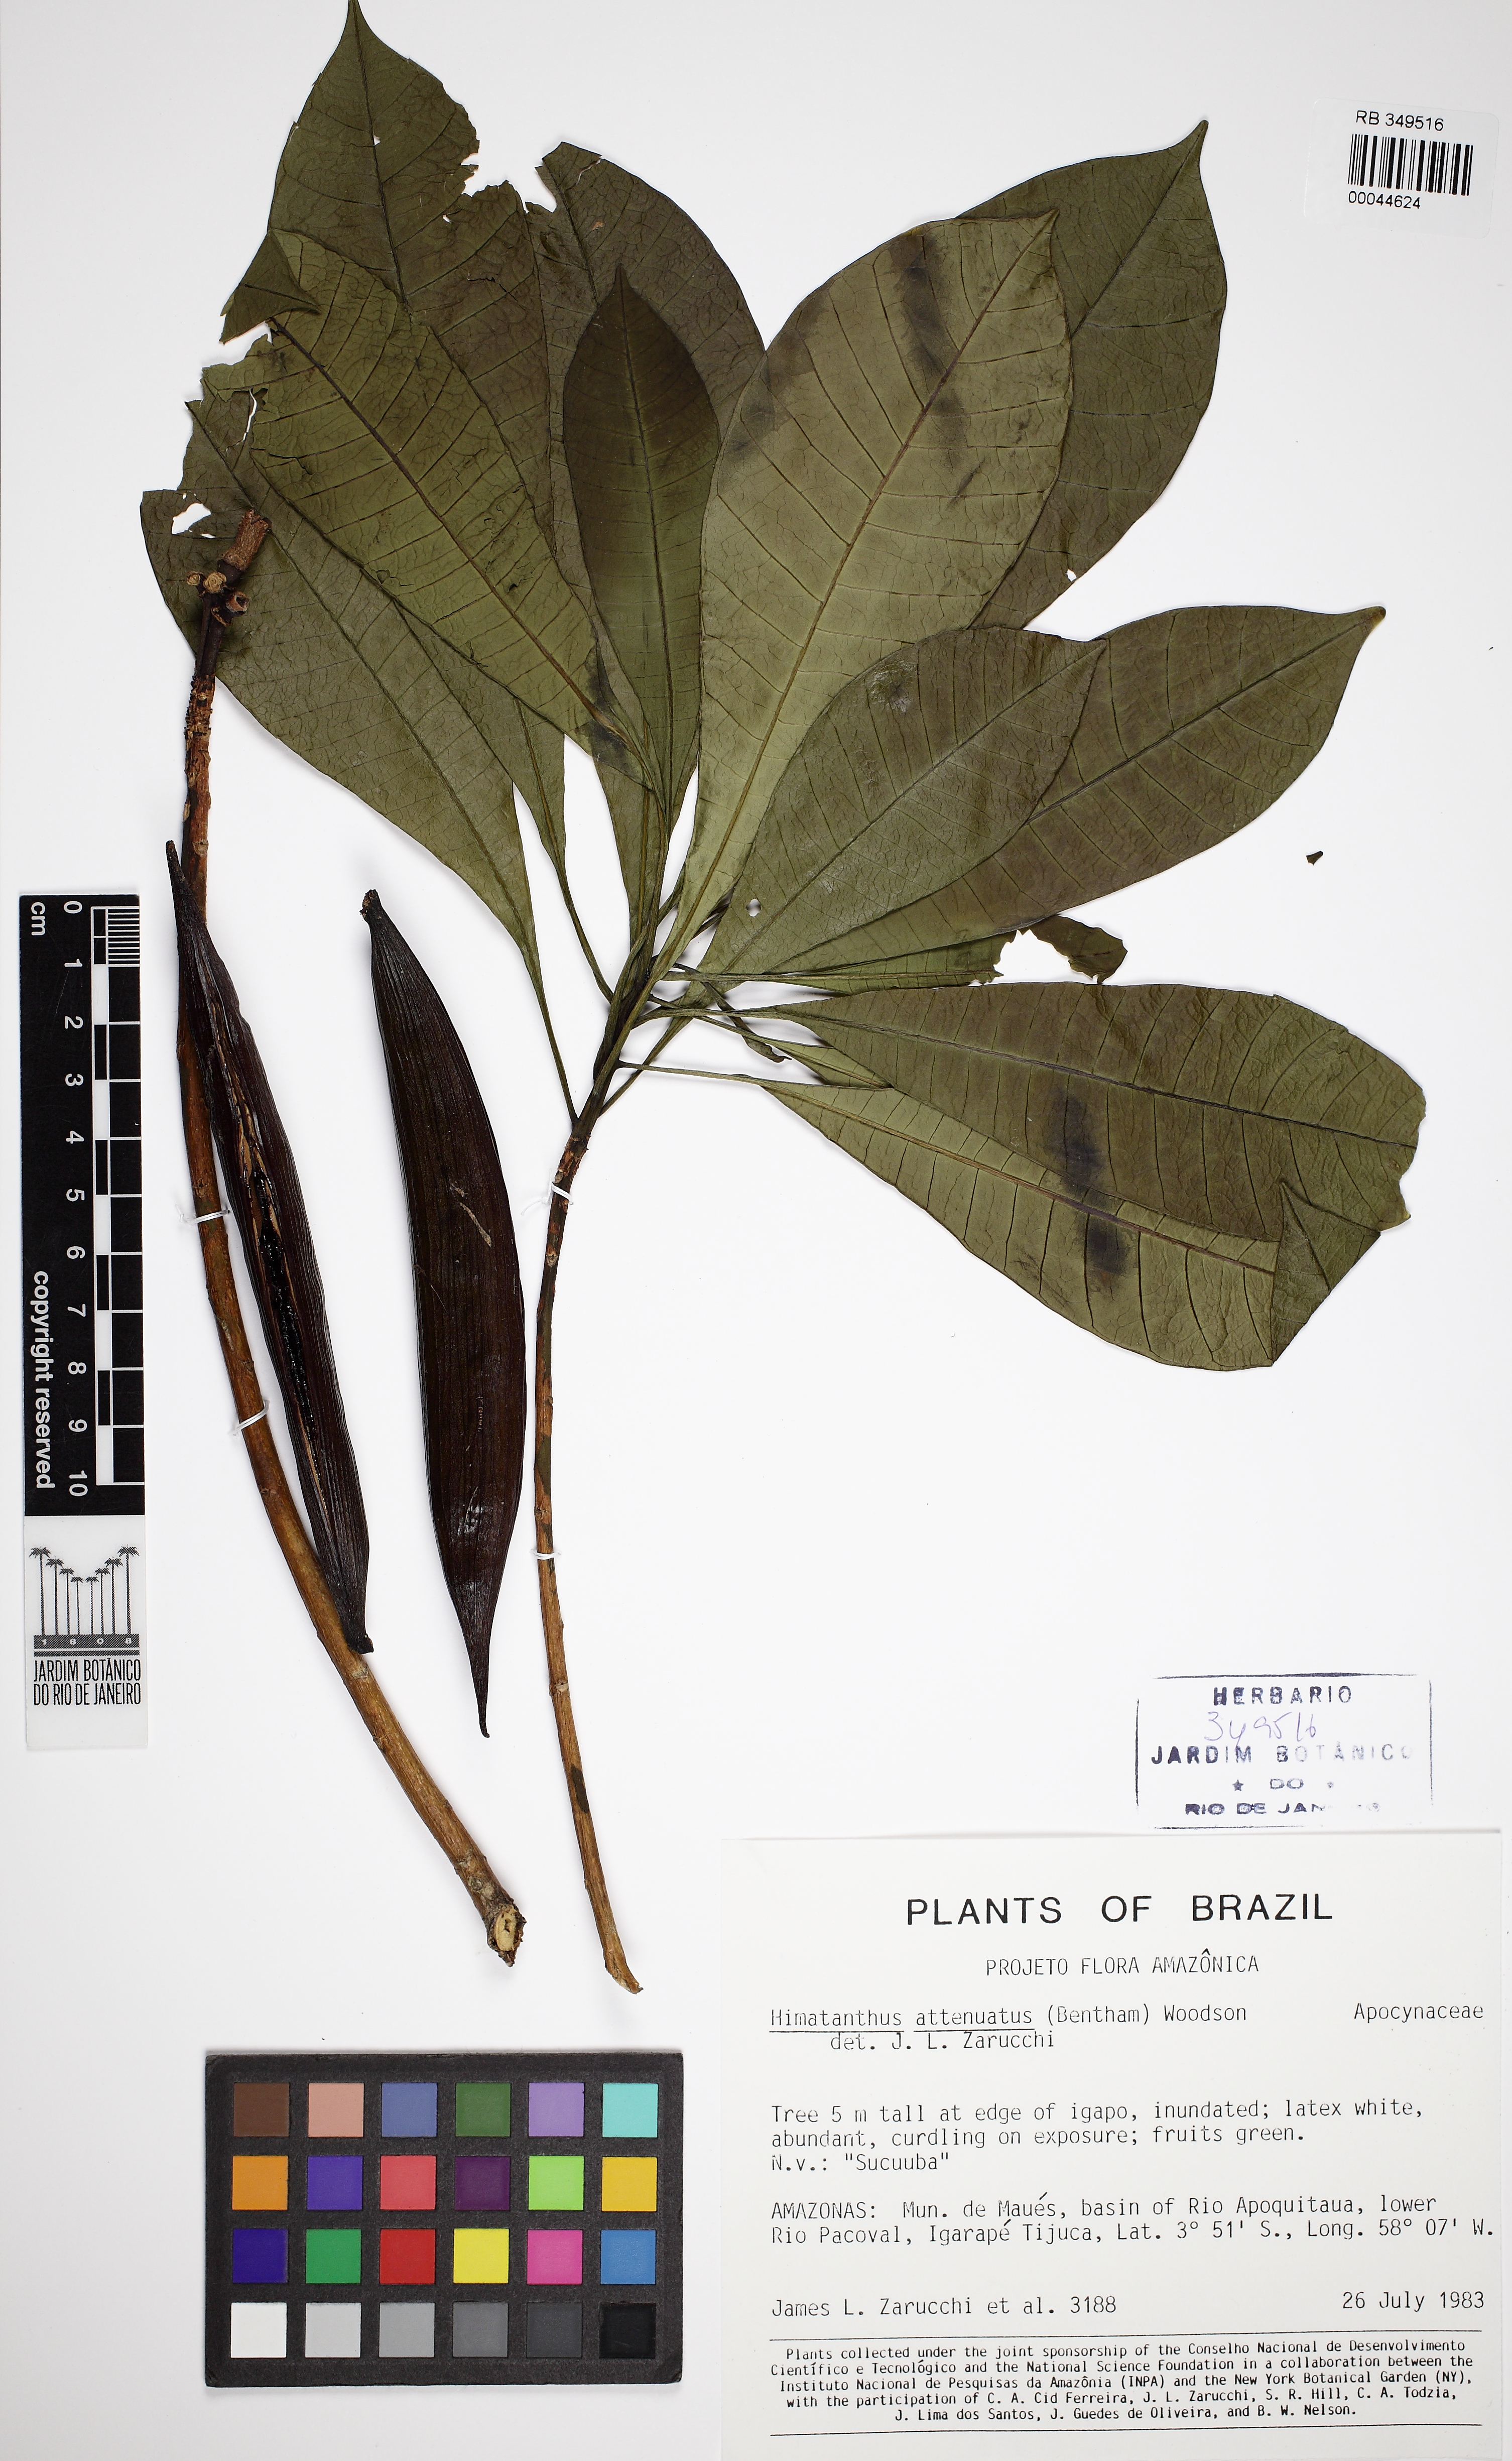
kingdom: Plantae
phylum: Tracheophyta
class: Magnoliopsida
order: Gentianales
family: Apocynaceae
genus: Himatanthus
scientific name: Himatanthus attenuatus
